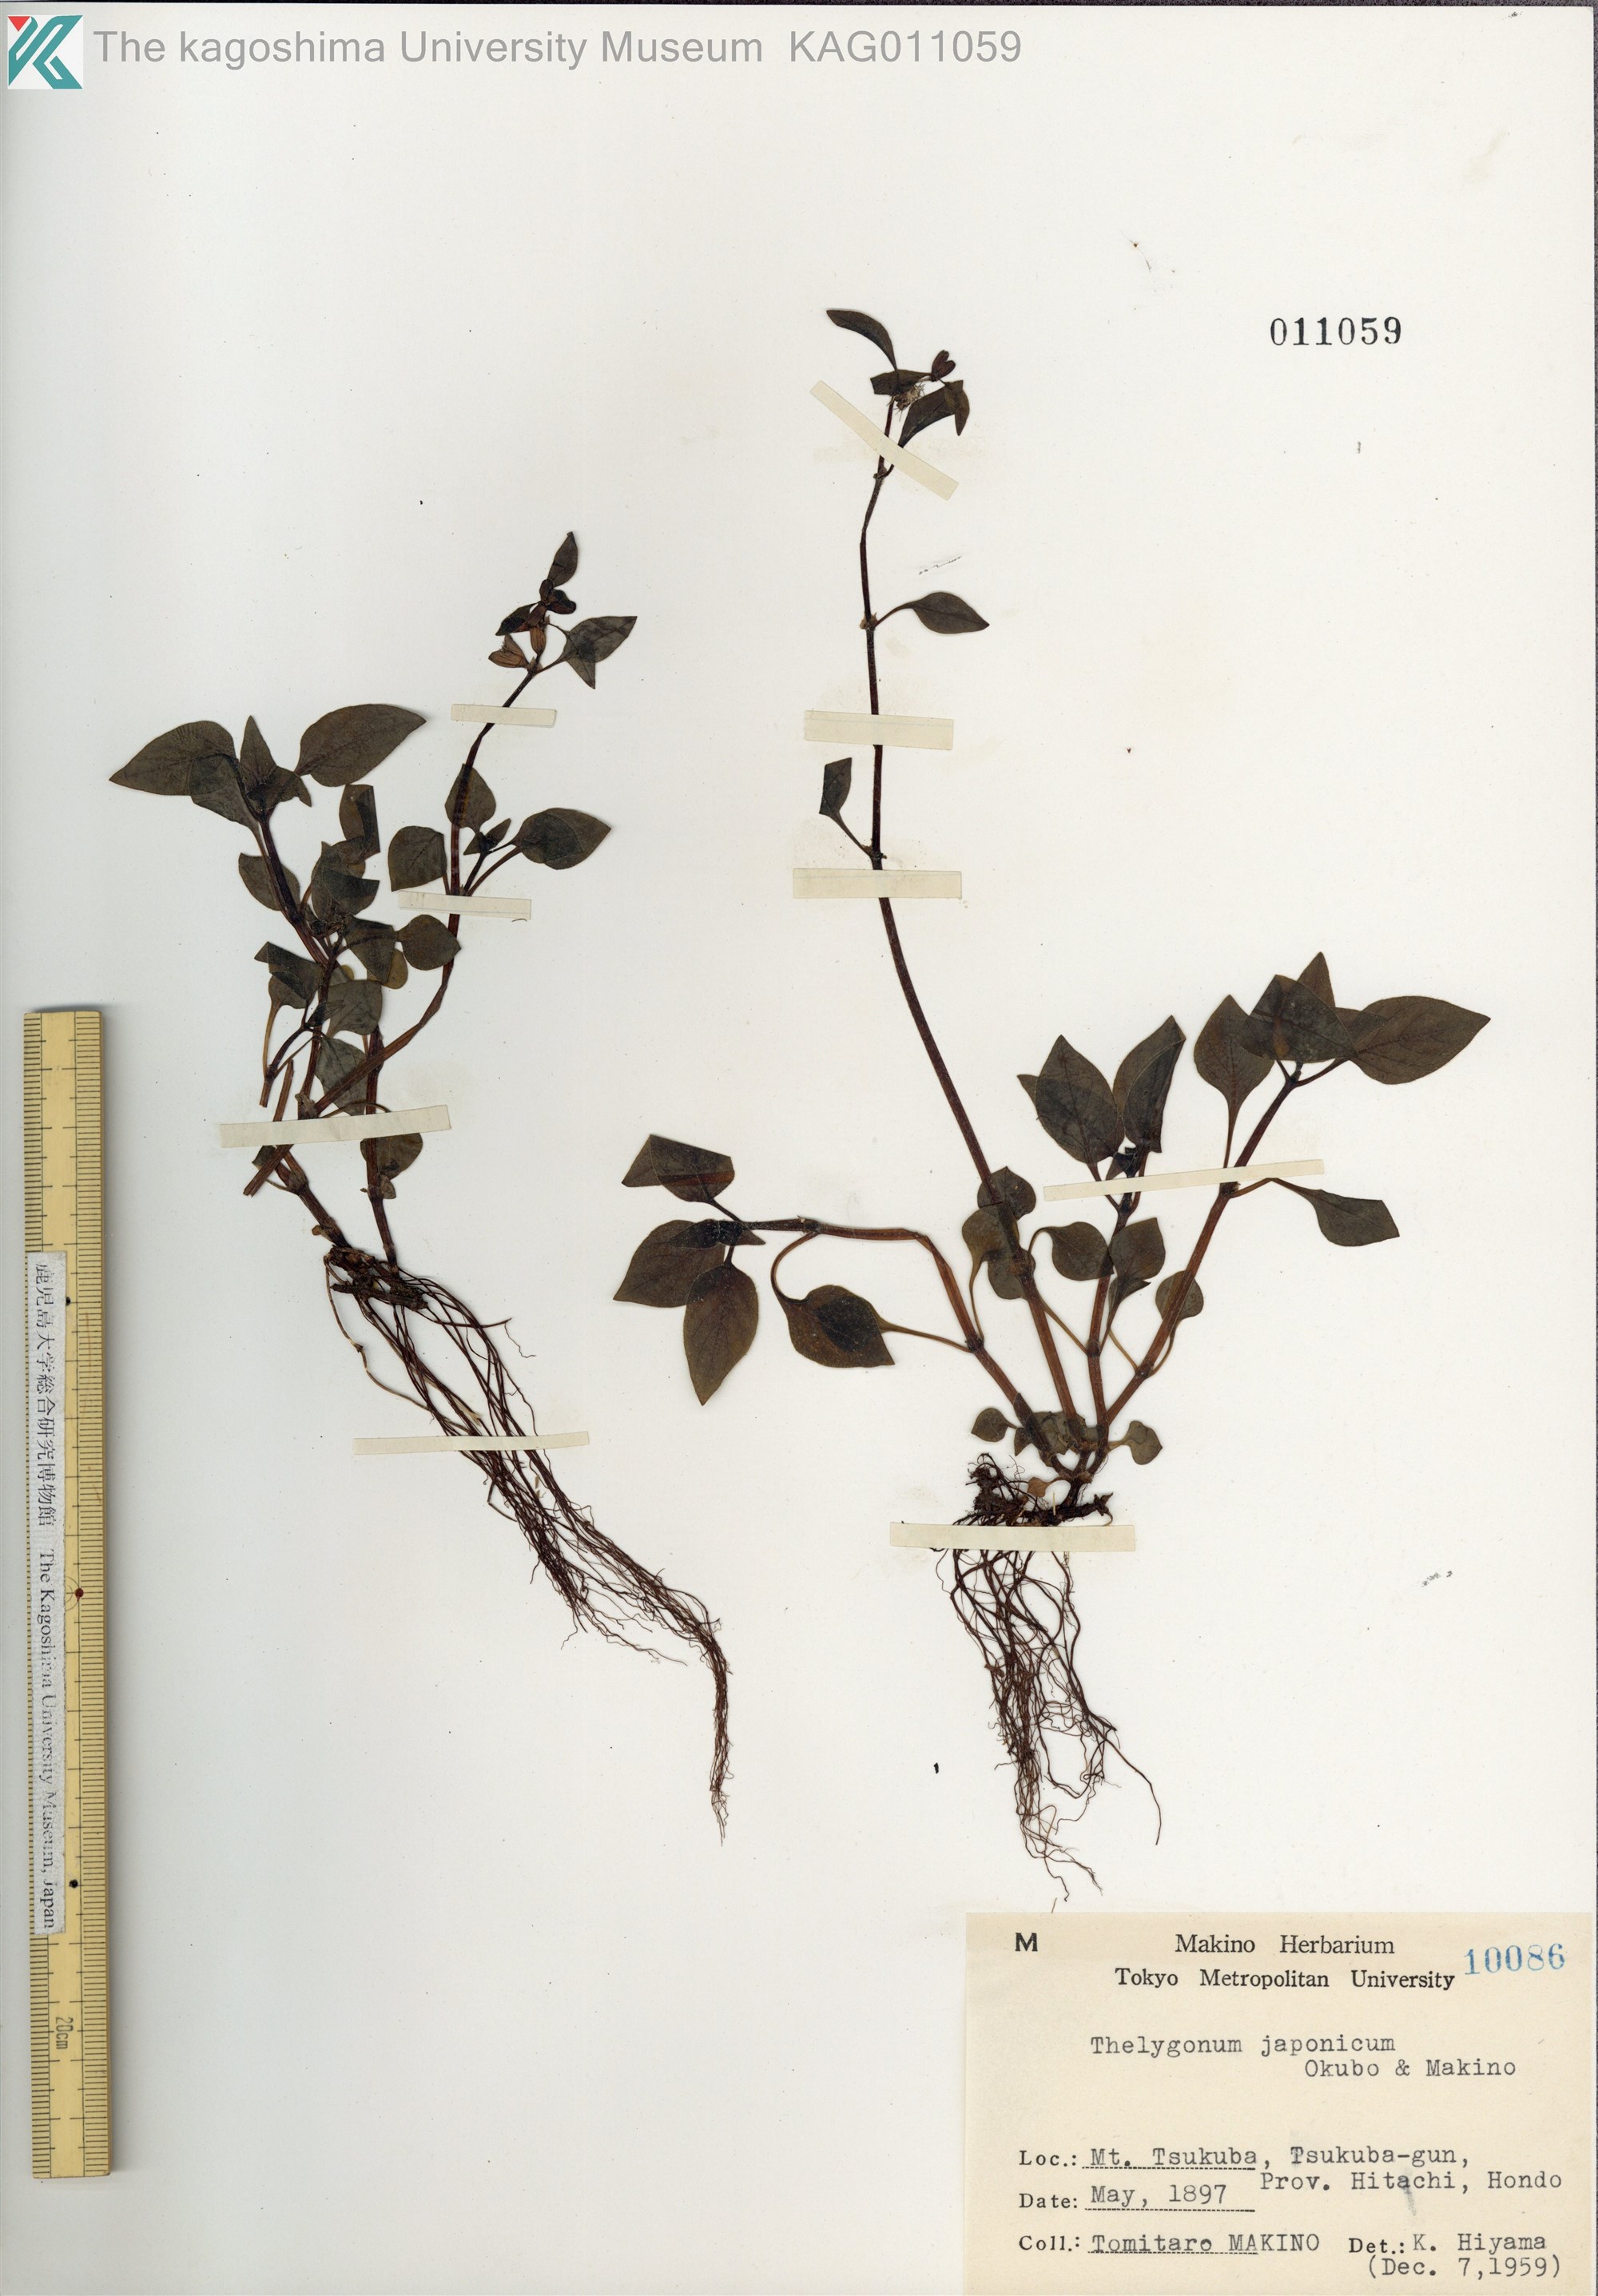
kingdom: Plantae
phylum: Tracheophyta
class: Magnoliopsida
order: Gentianales
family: Rubiaceae
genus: Theligonum
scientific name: Theligonum japonicum
